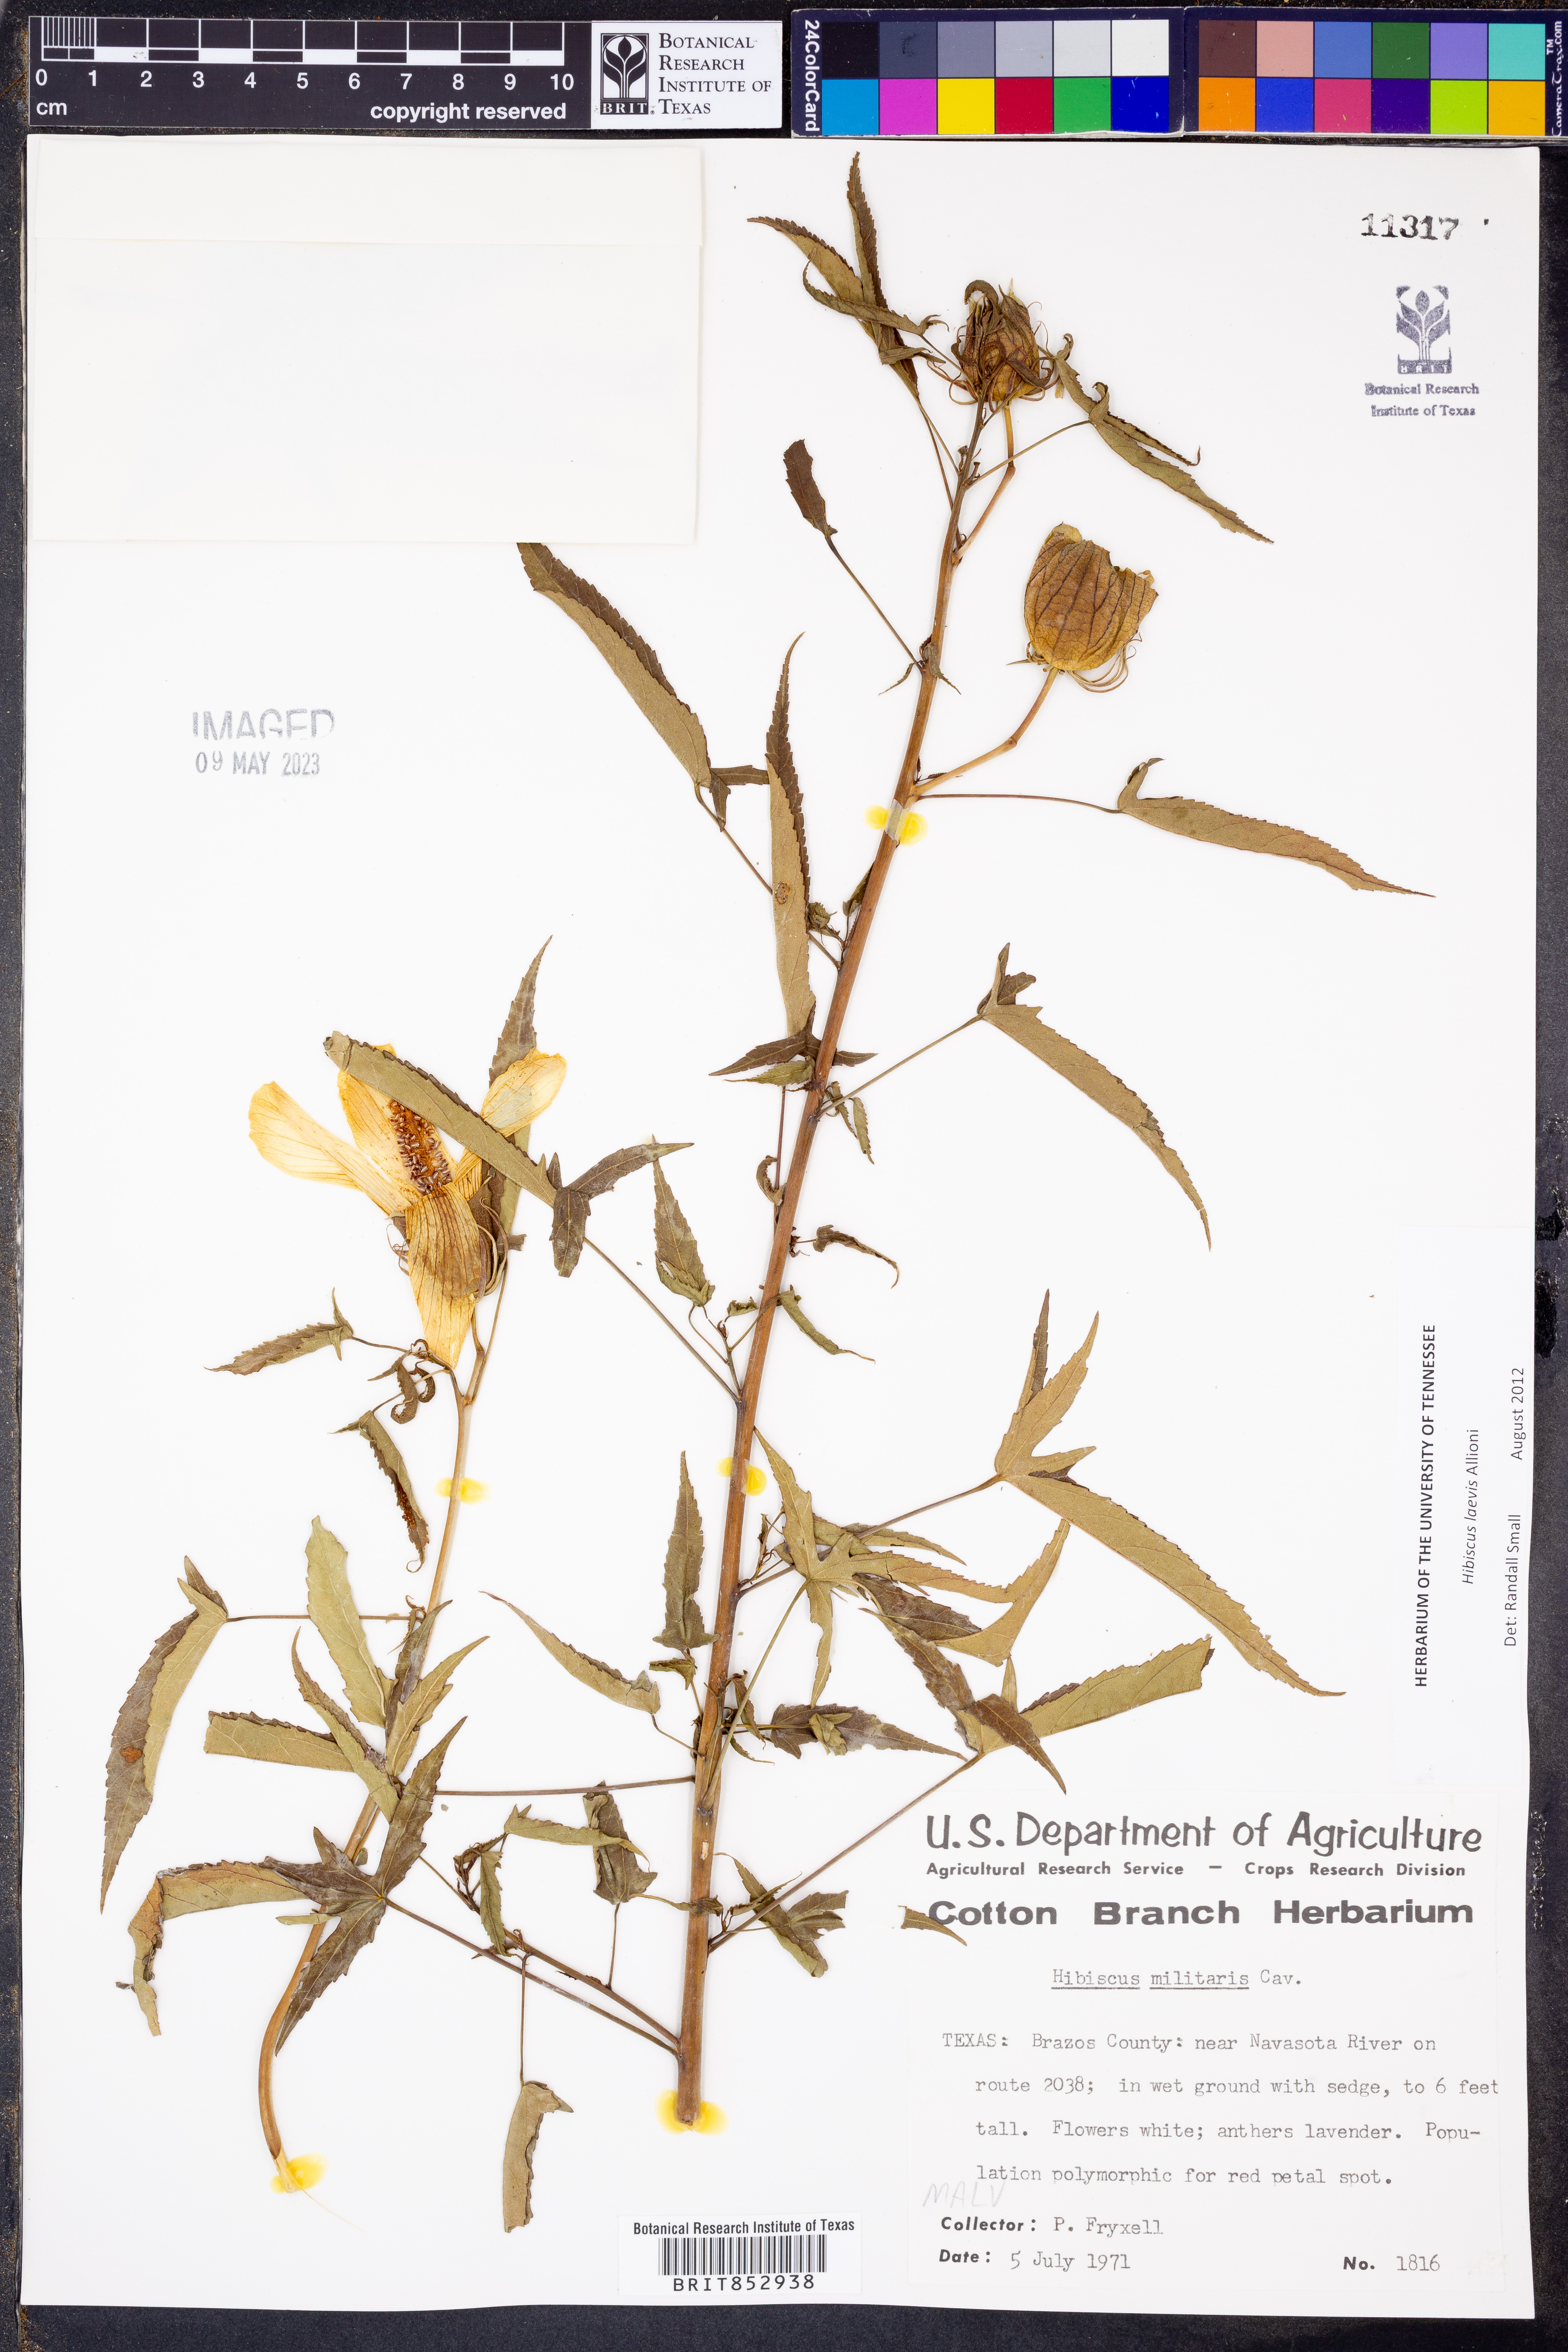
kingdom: Plantae
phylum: Tracheophyta
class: Magnoliopsida
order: Malvales
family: Malvaceae
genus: Hibiscus
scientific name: Hibiscus laevis
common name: Scarlet rose-mallow
